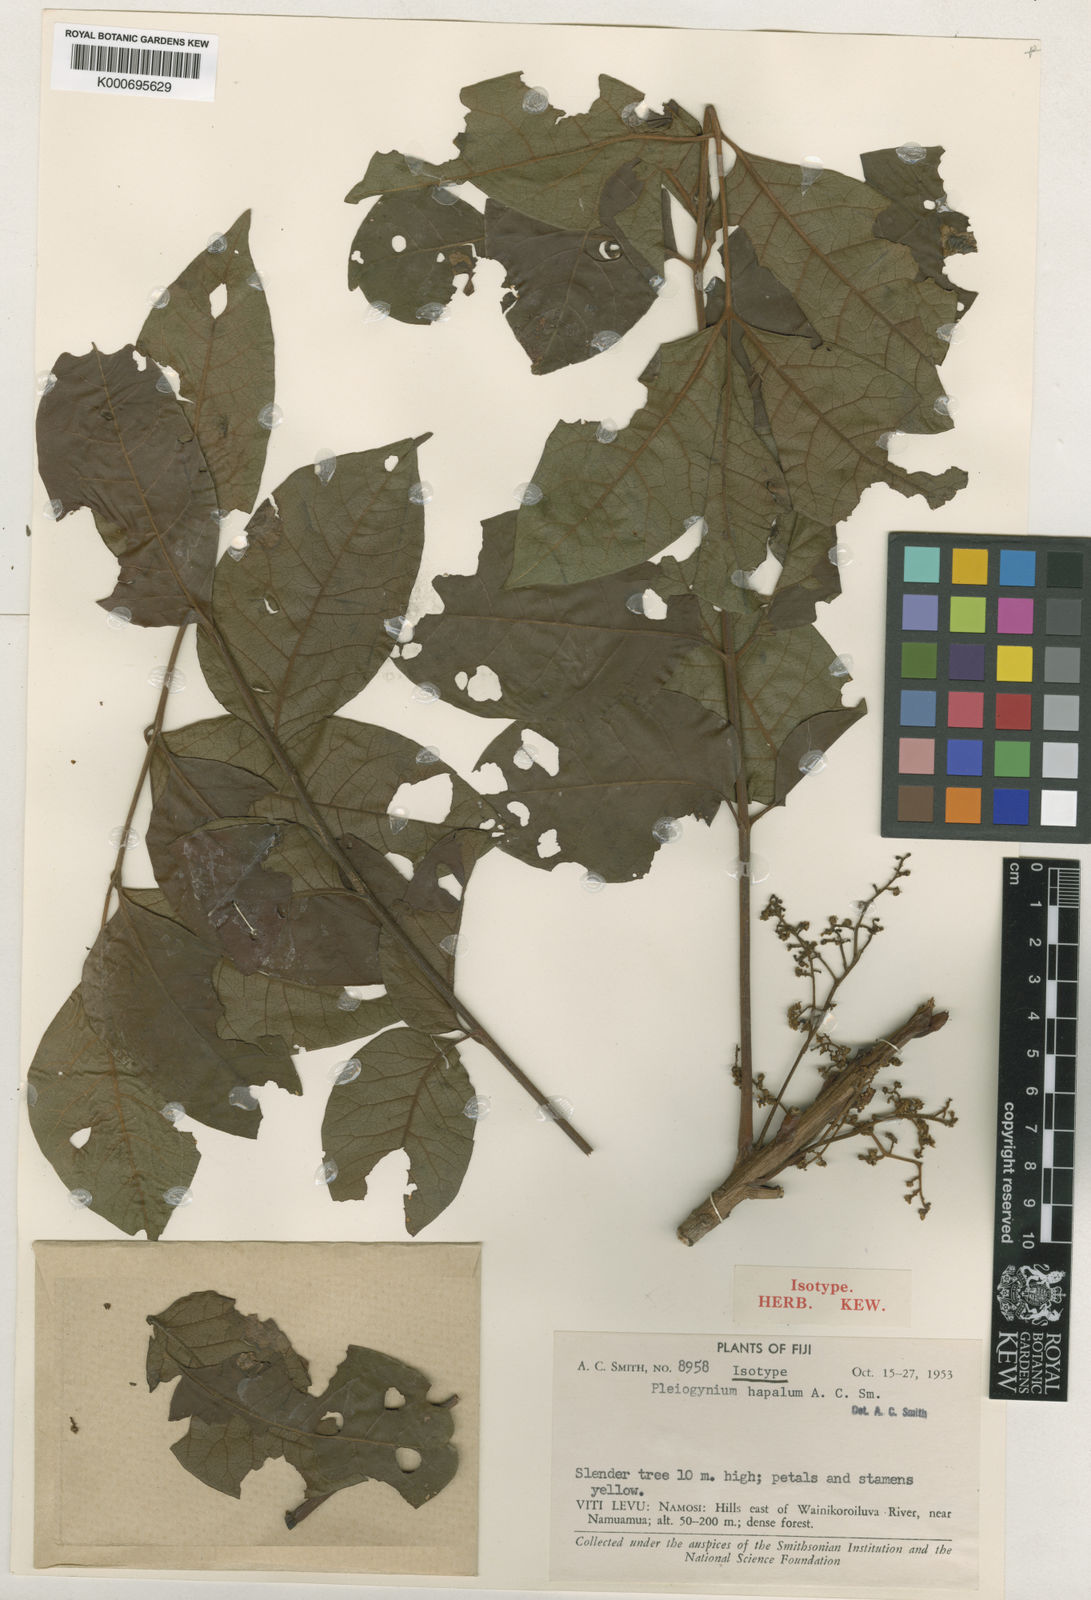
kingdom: Plantae
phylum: Tracheophyta
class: Magnoliopsida
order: Sapindales
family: Anacardiaceae
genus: Pleiogynium
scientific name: Pleiogynium hapalum
